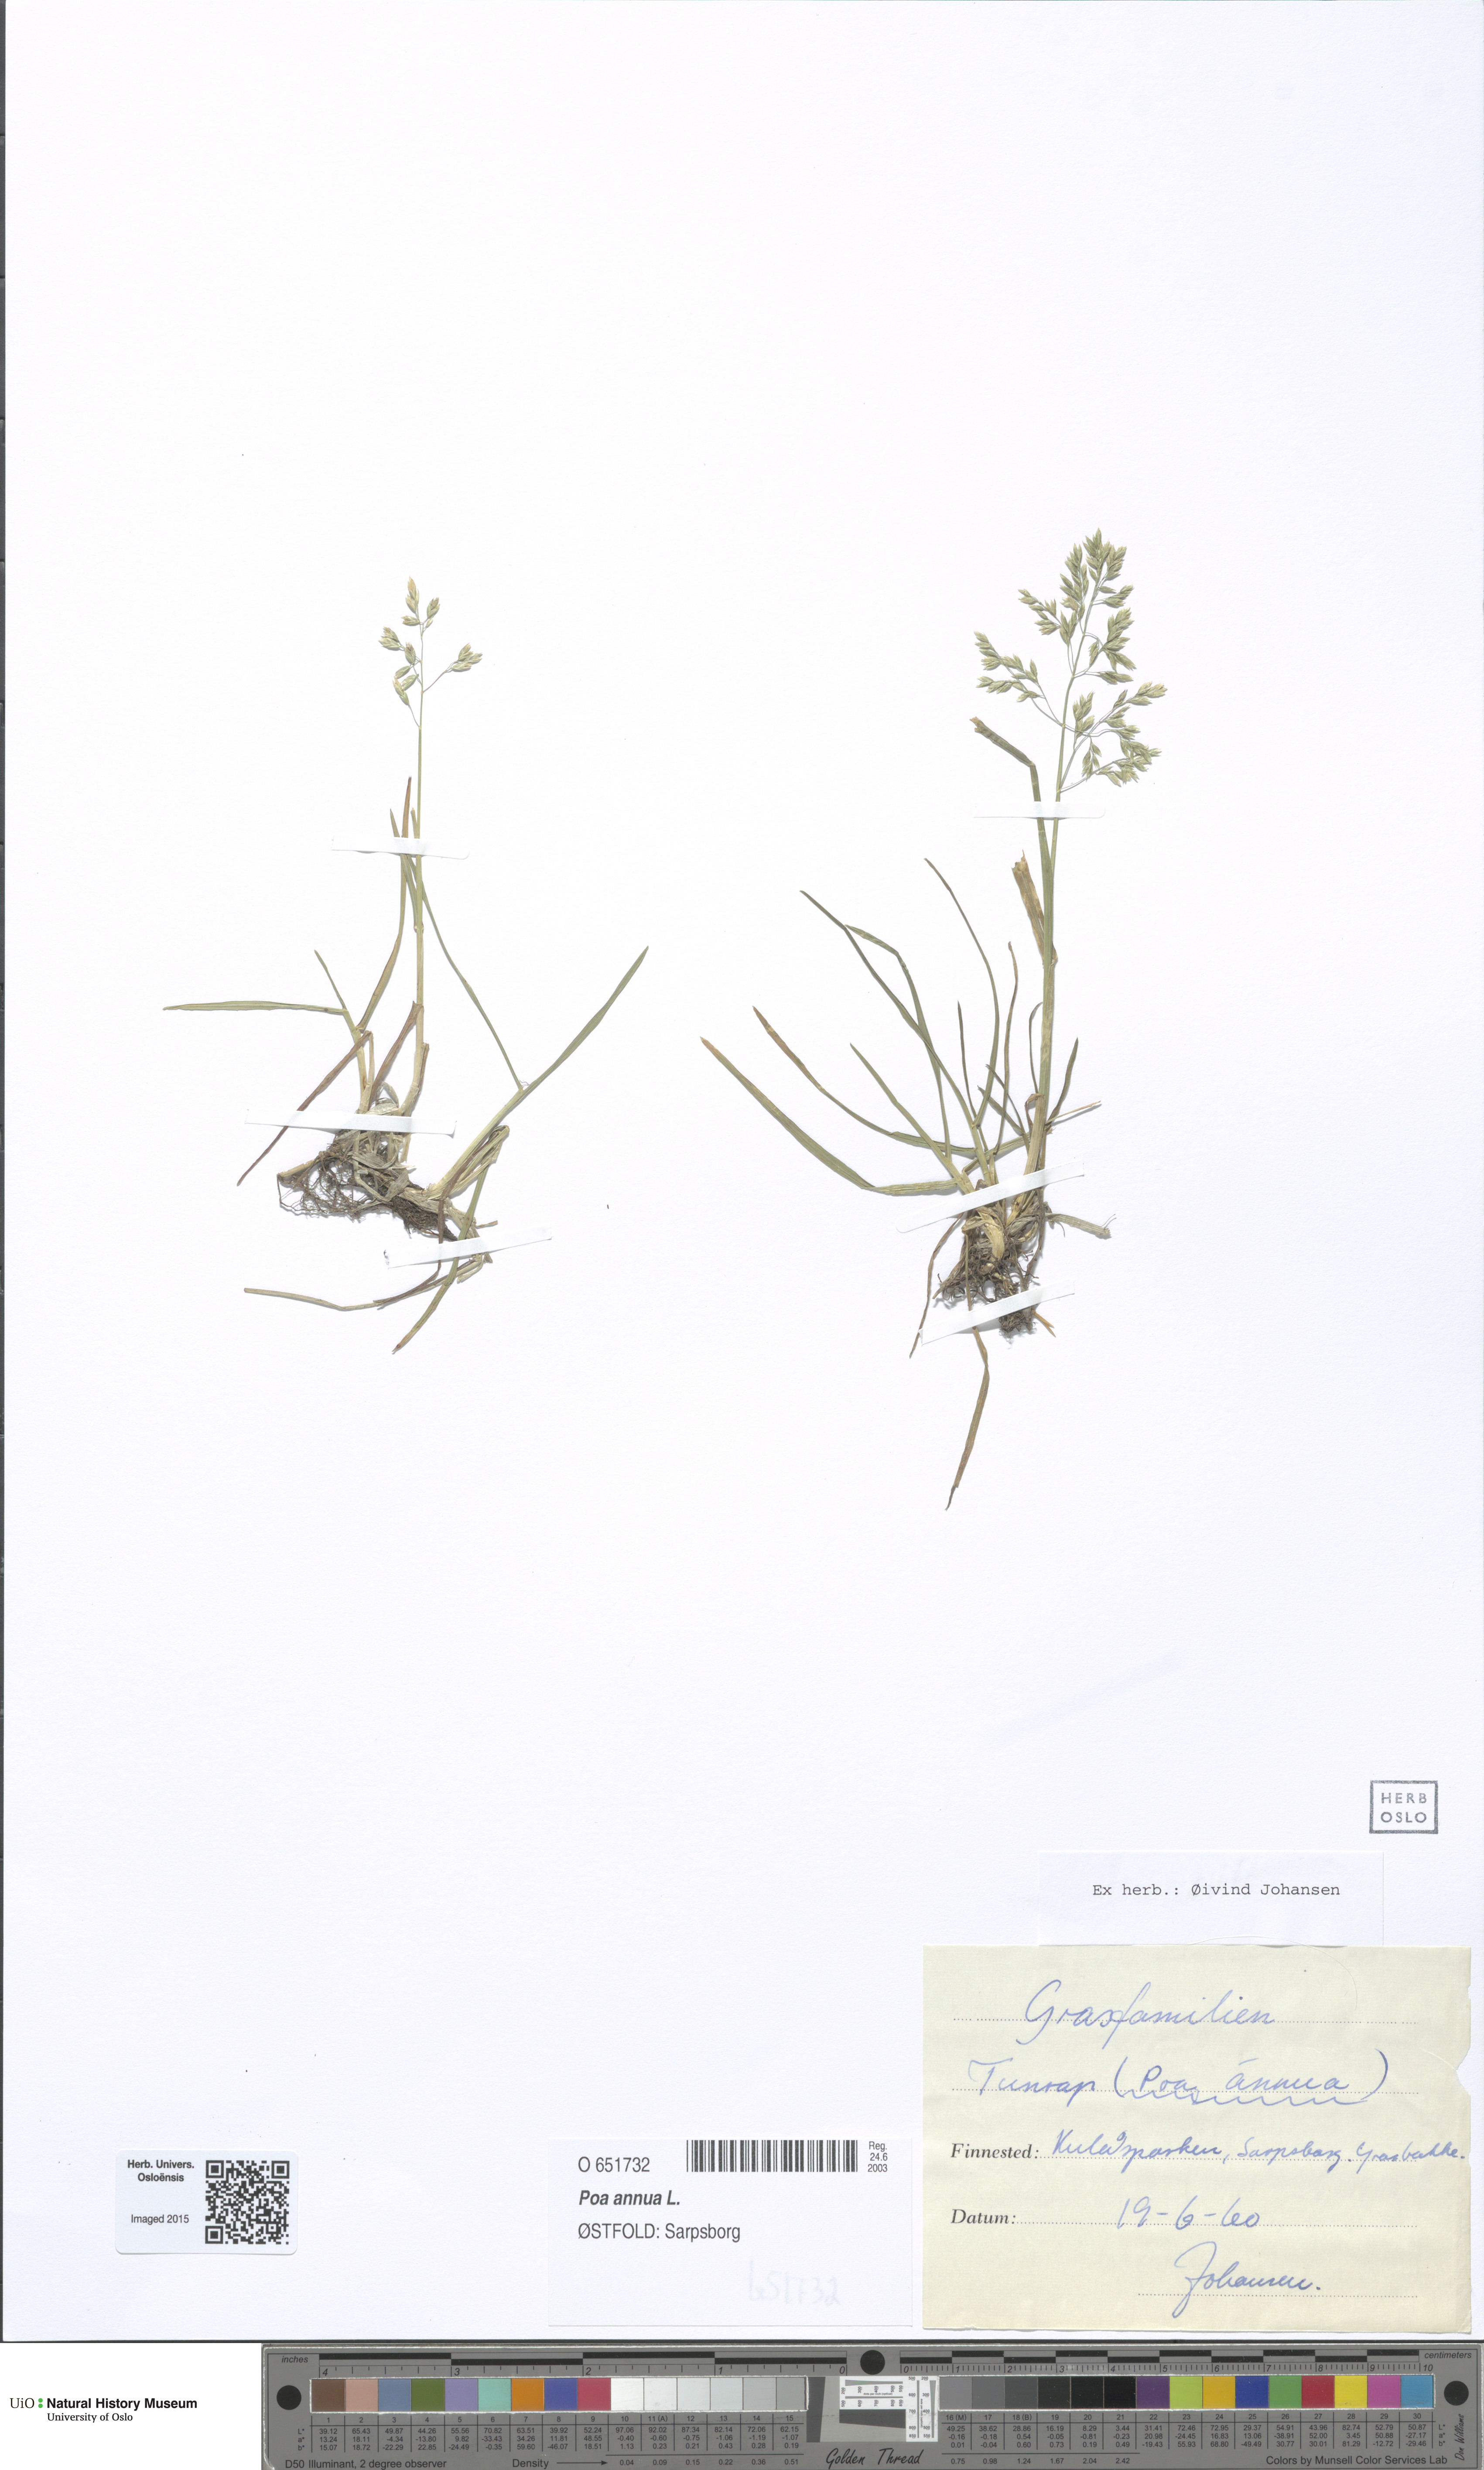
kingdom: Plantae
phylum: Tracheophyta
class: Liliopsida
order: Poales
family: Poaceae
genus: Poa
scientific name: Poa annua
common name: Annual bluegrass
